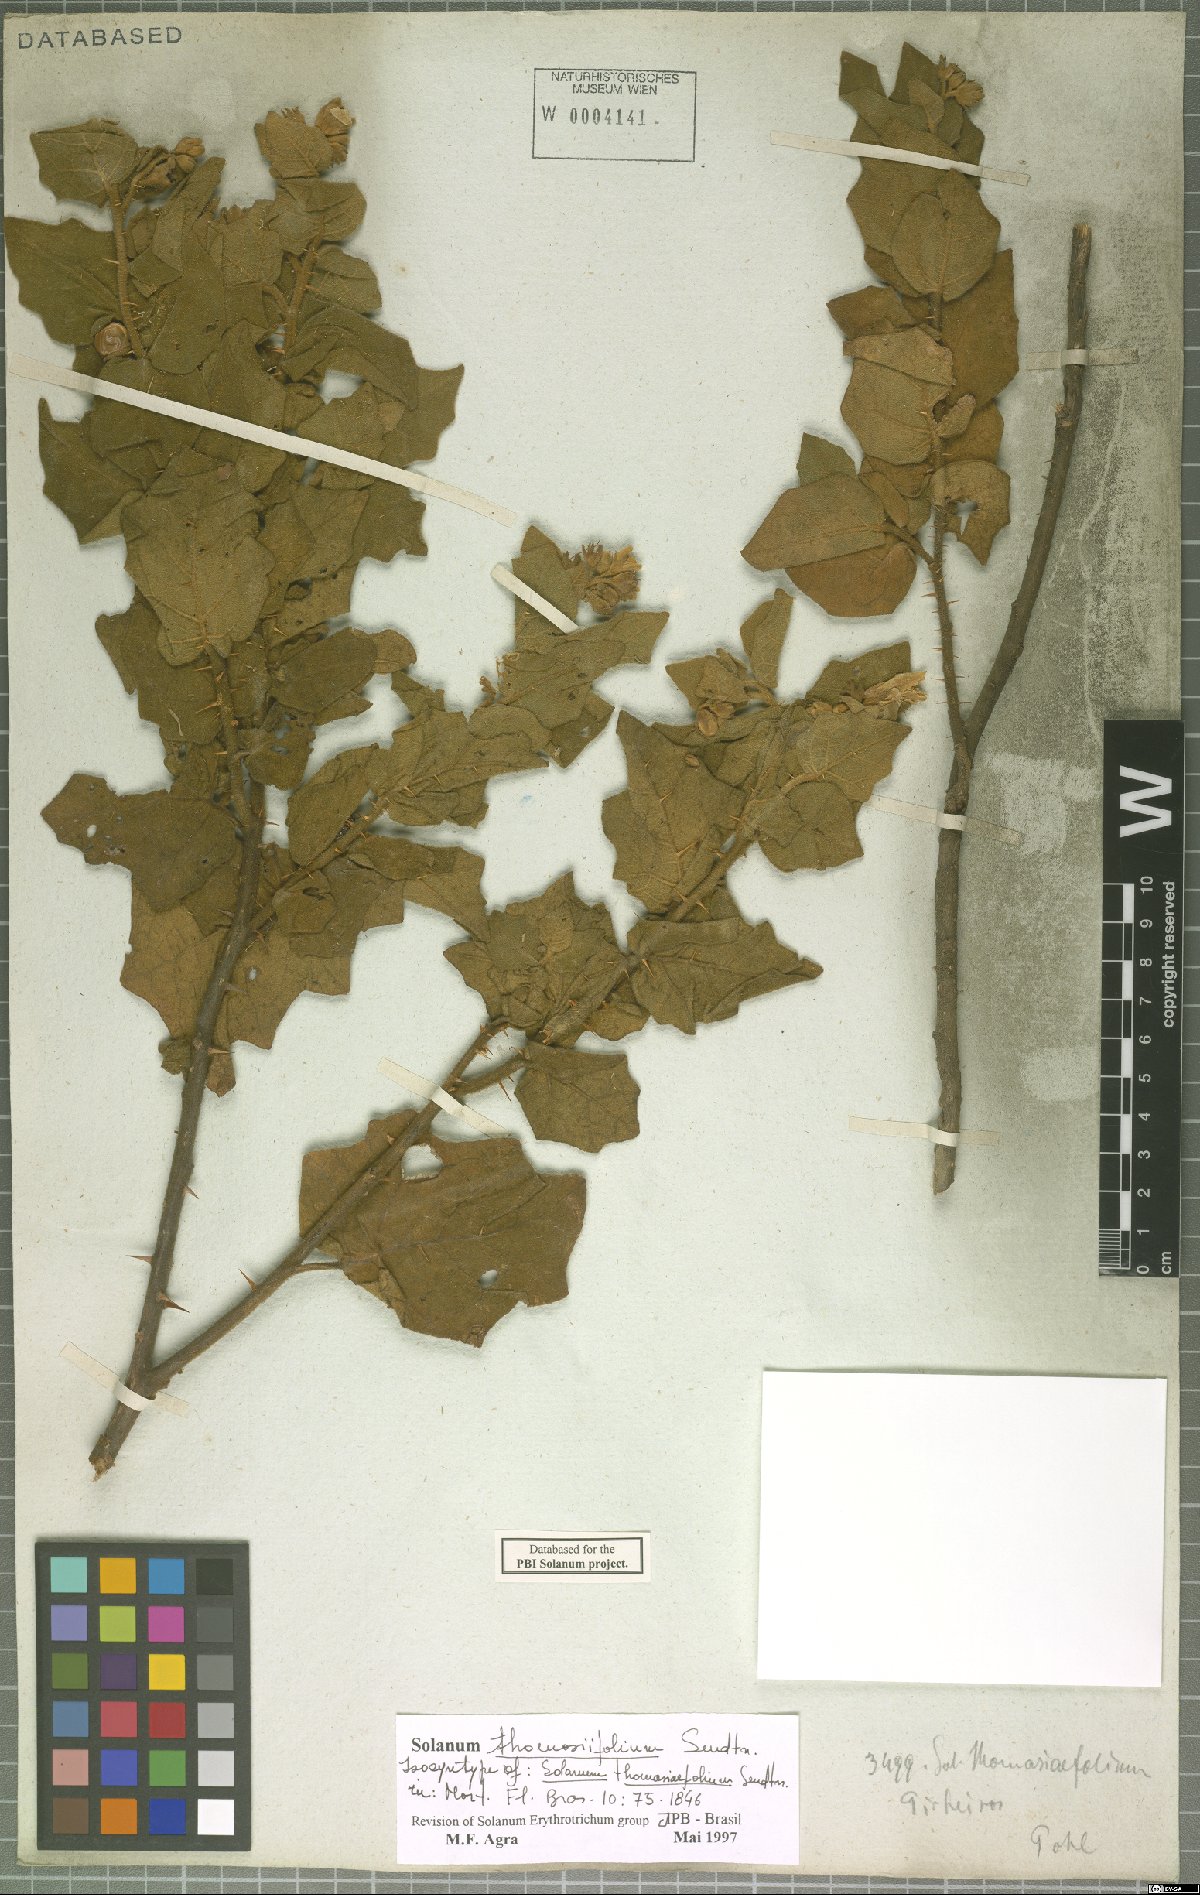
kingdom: Plantae
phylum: Tracheophyta
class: Magnoliopsida
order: Solanales
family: Solanaceae
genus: Solanum
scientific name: Solanum thomasiifolium
